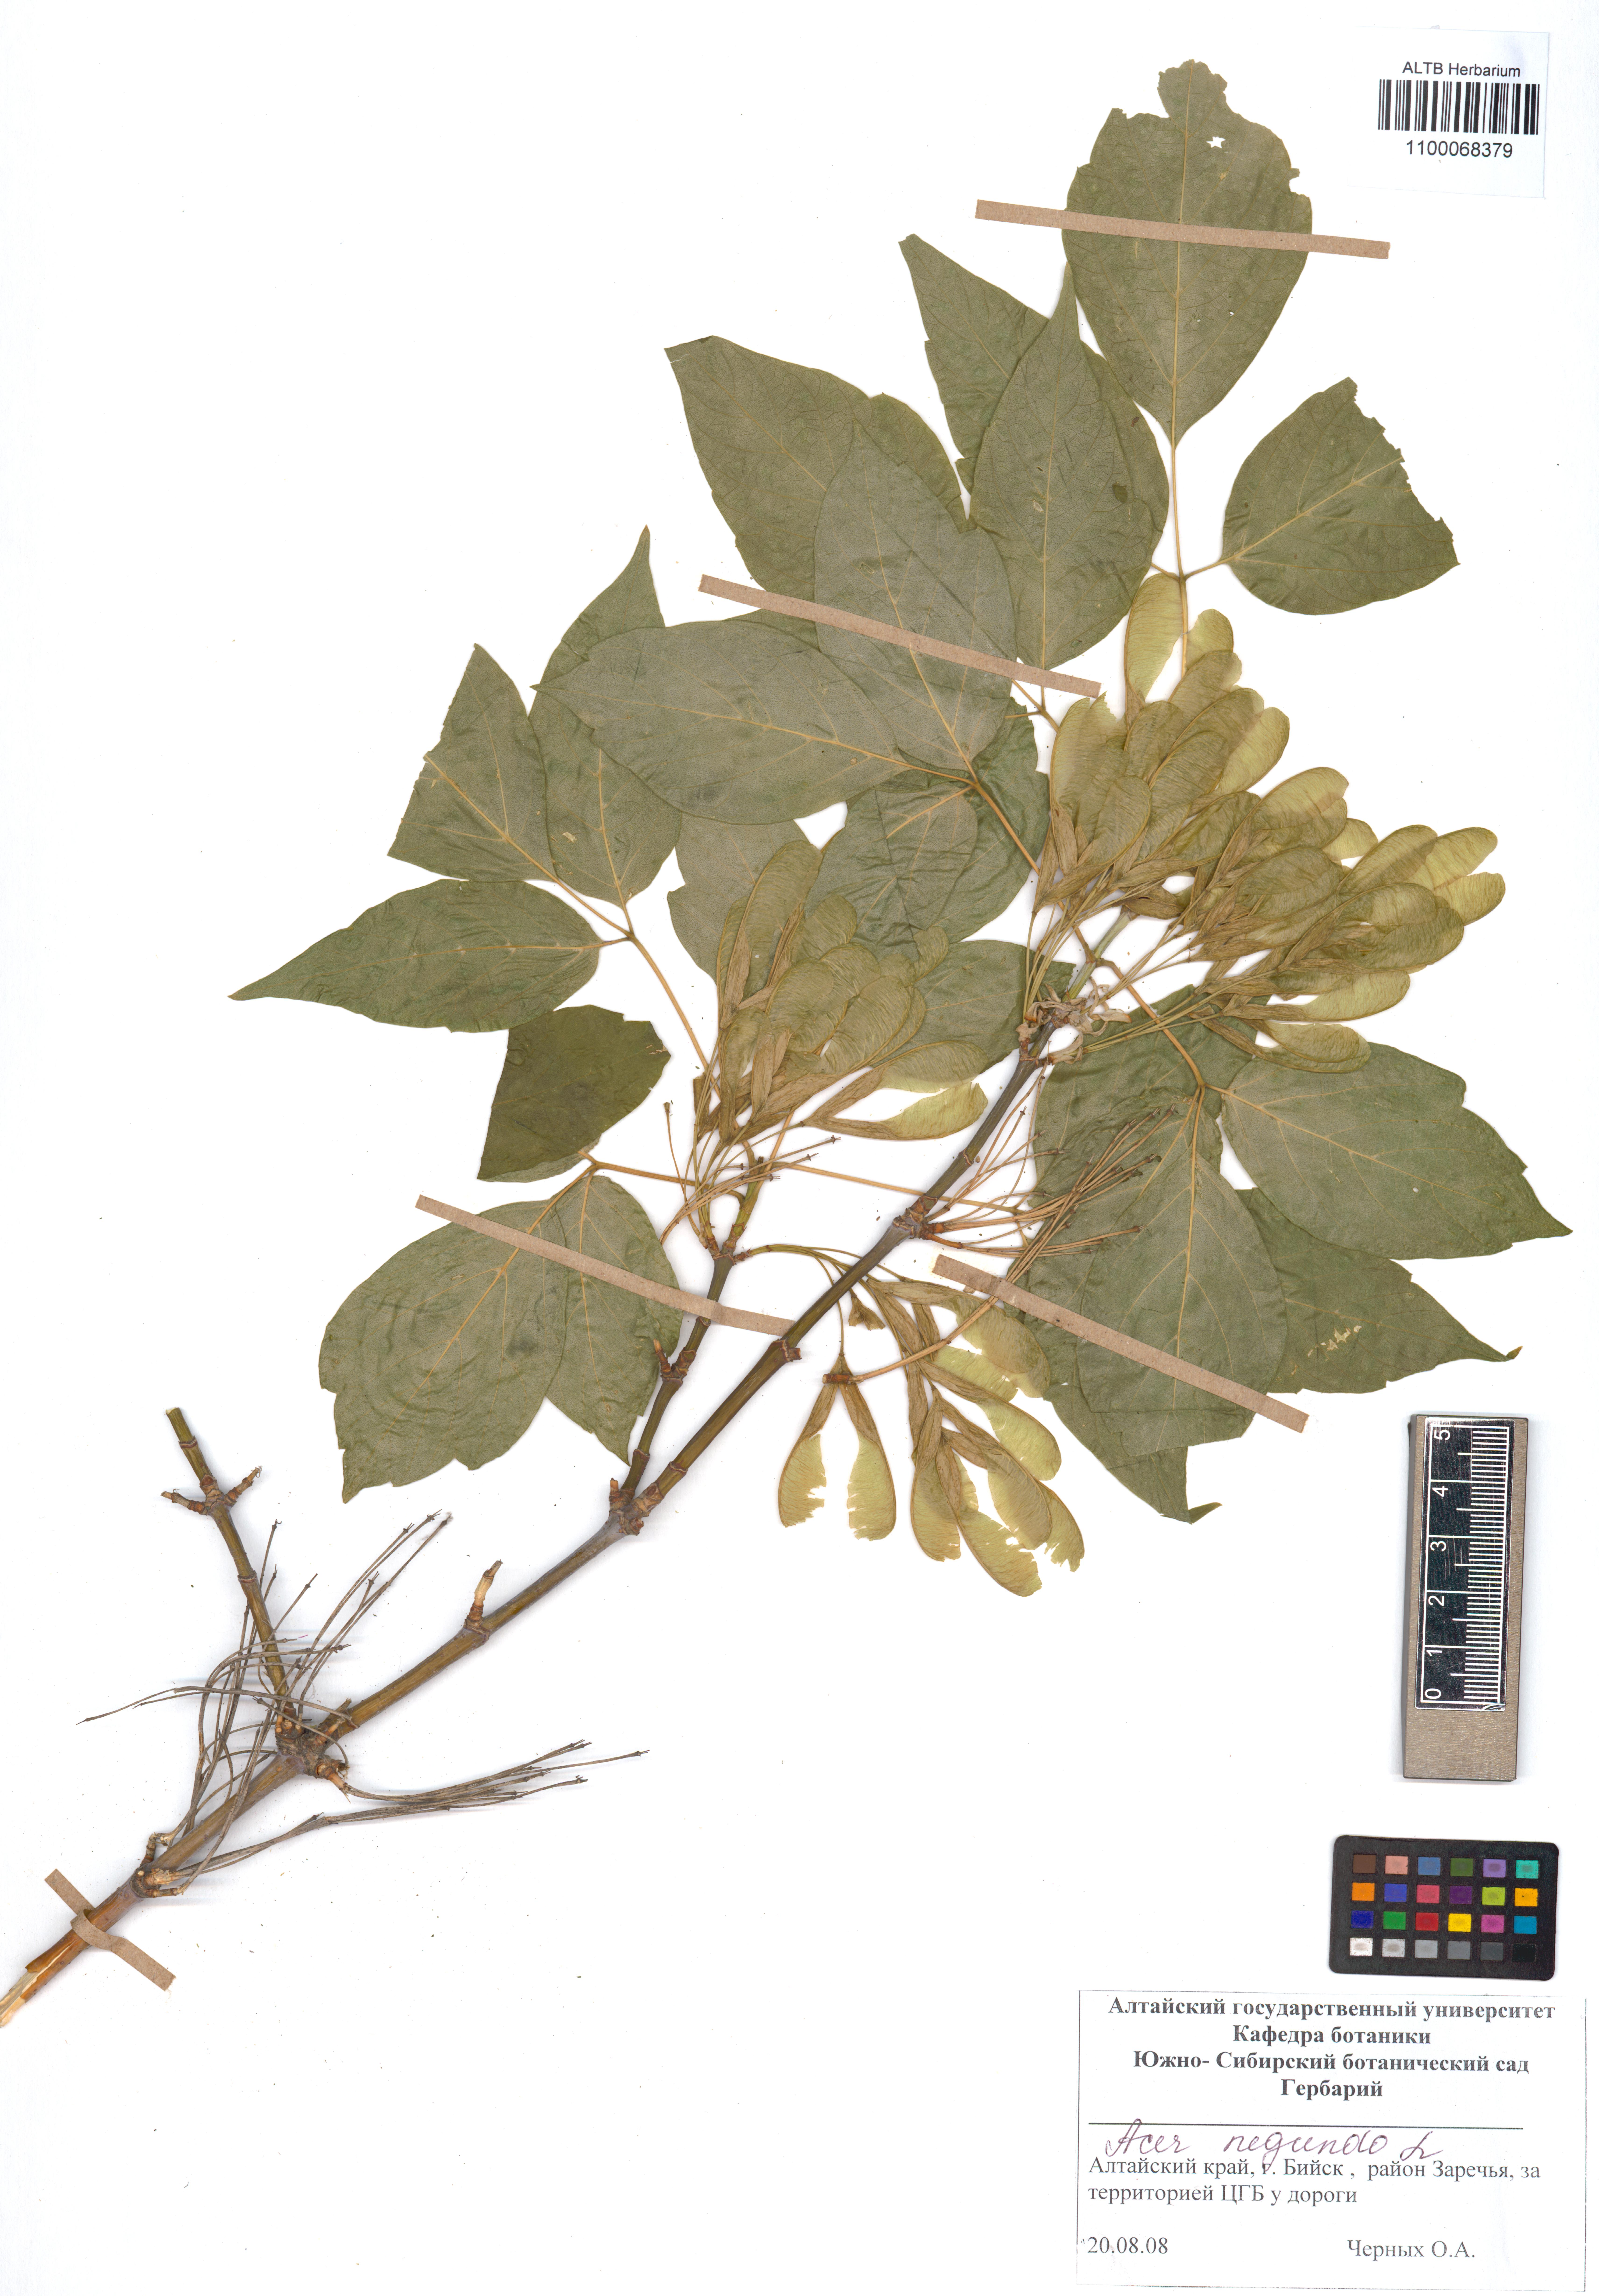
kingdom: Plantae
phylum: Tracheophyta
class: Magnoliopsida
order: Sapindales
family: Sapindaceae
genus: Acer
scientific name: Acer negundo
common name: Ashleaf maple
